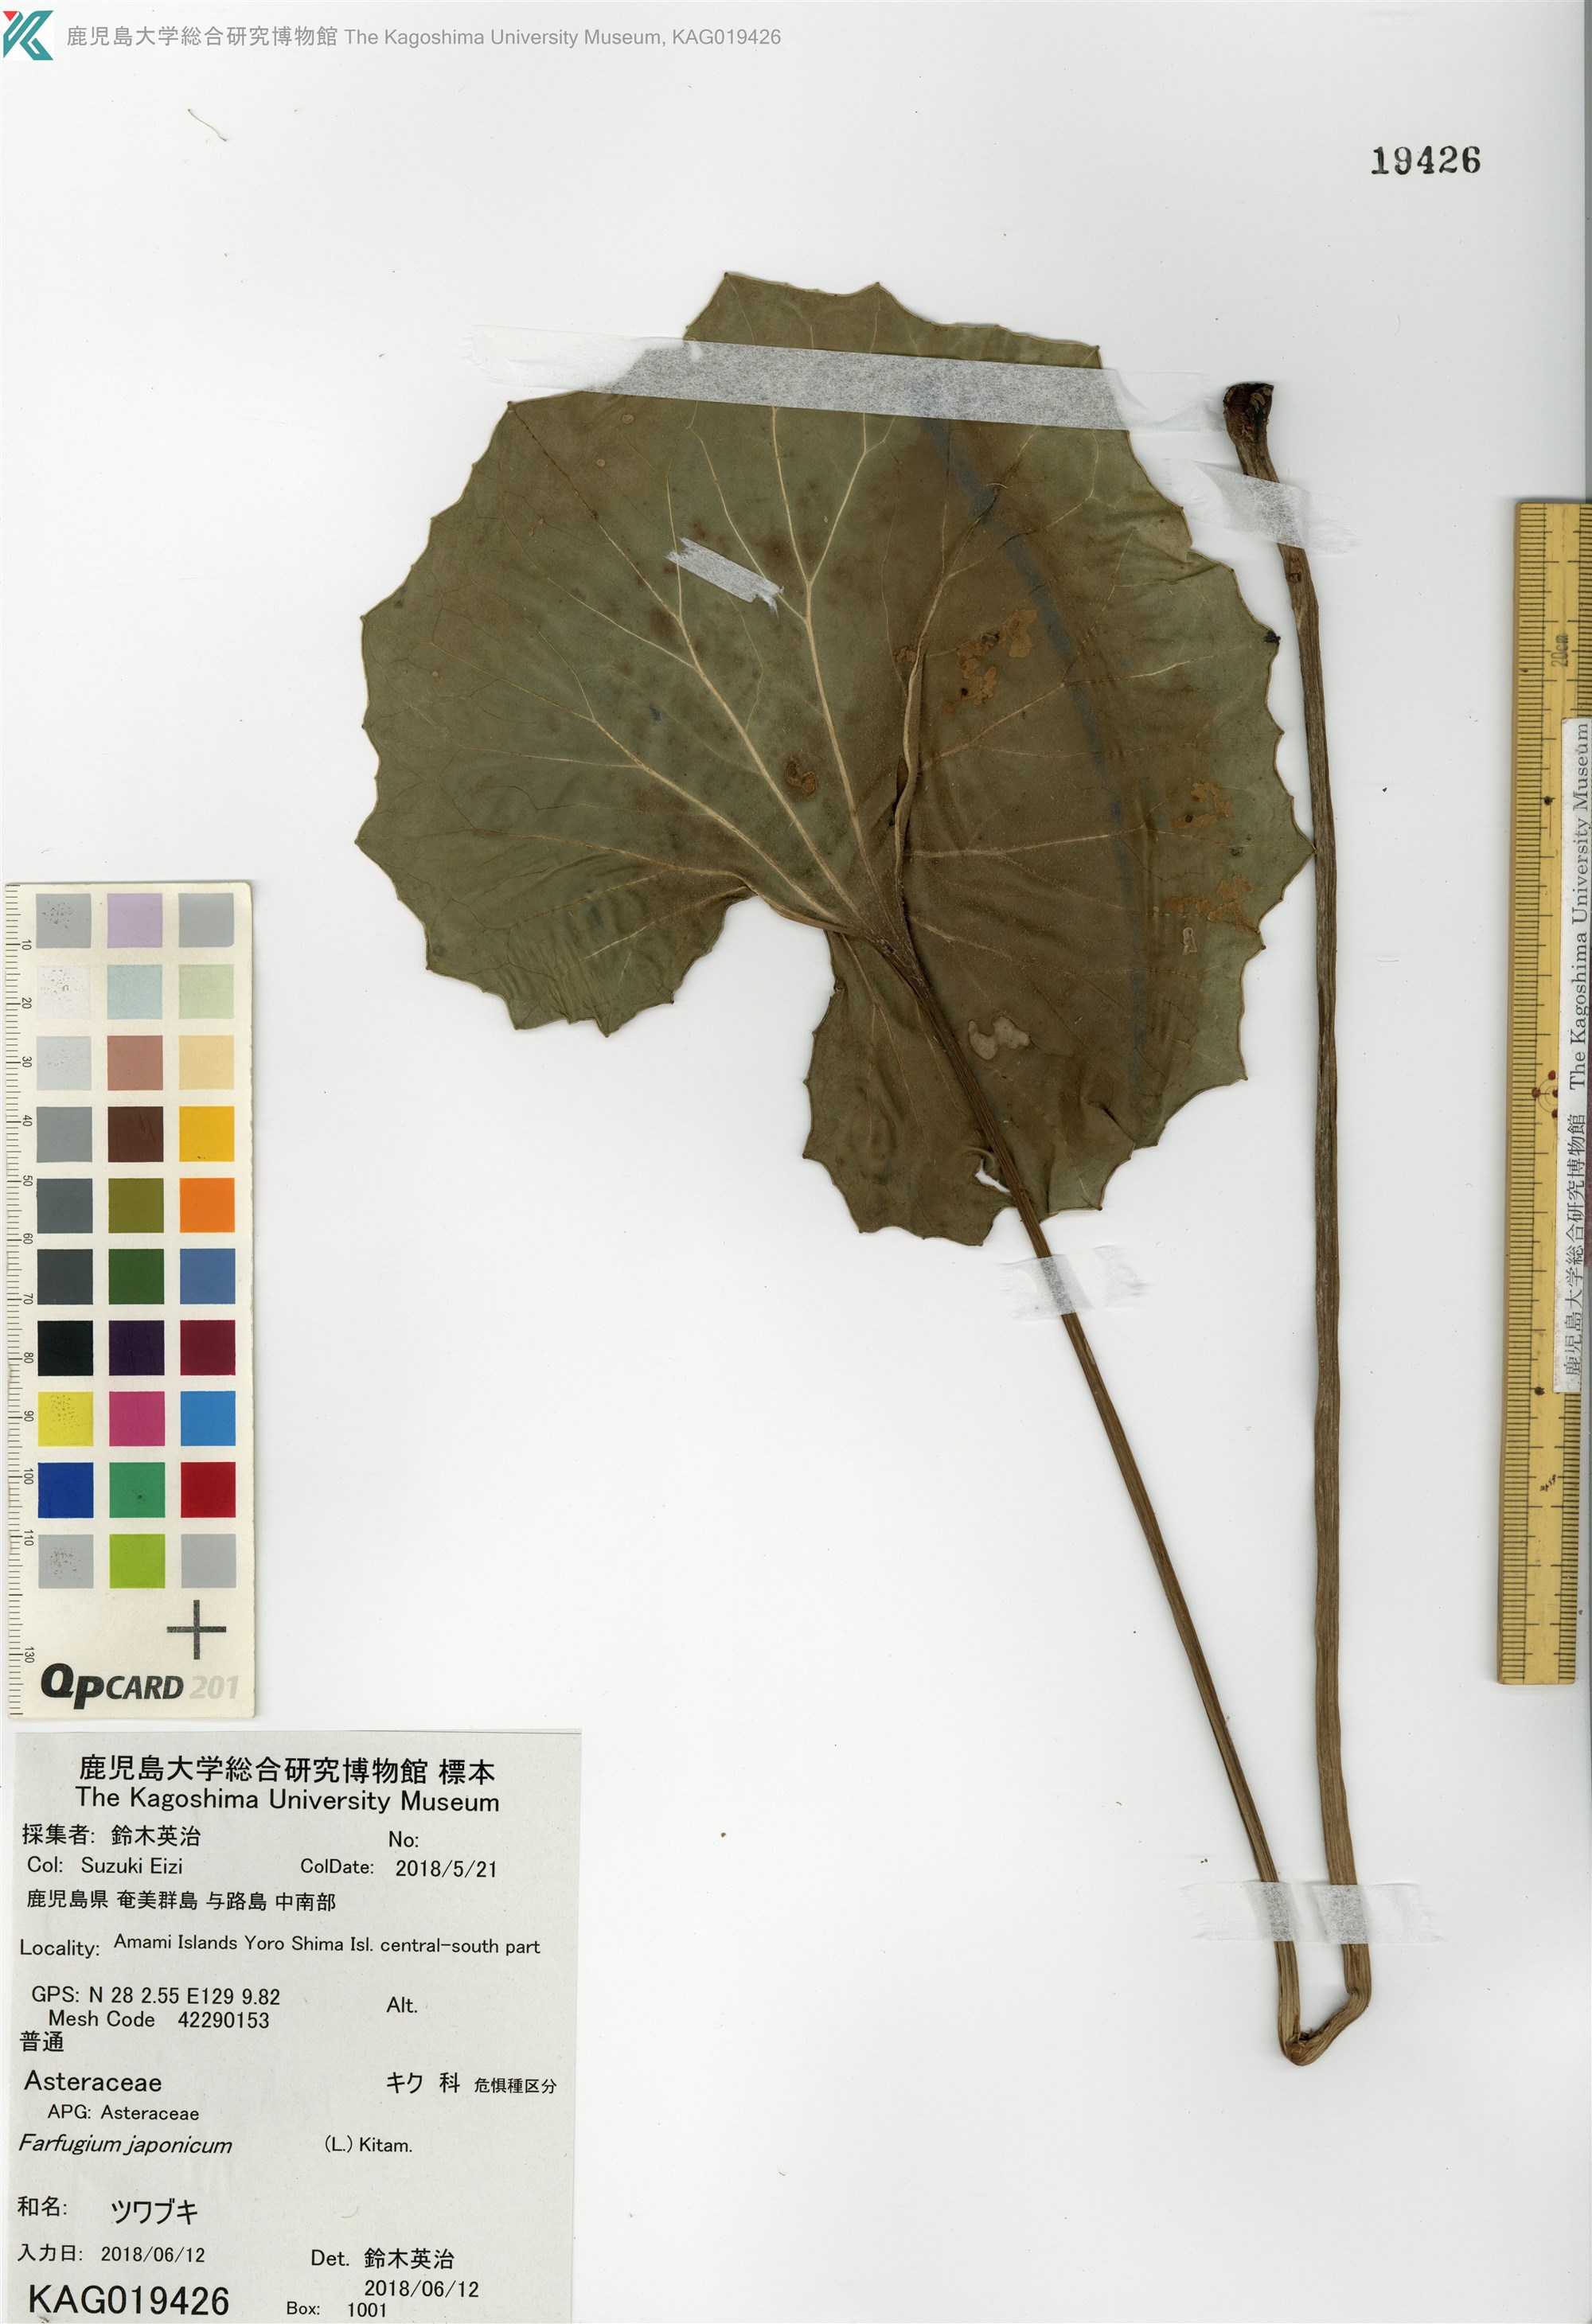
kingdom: Plantae
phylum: Tracheophyta
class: Magnoliopsida
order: Asterales
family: Asteraceae
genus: Farfugium
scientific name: Farfugium japonicum
